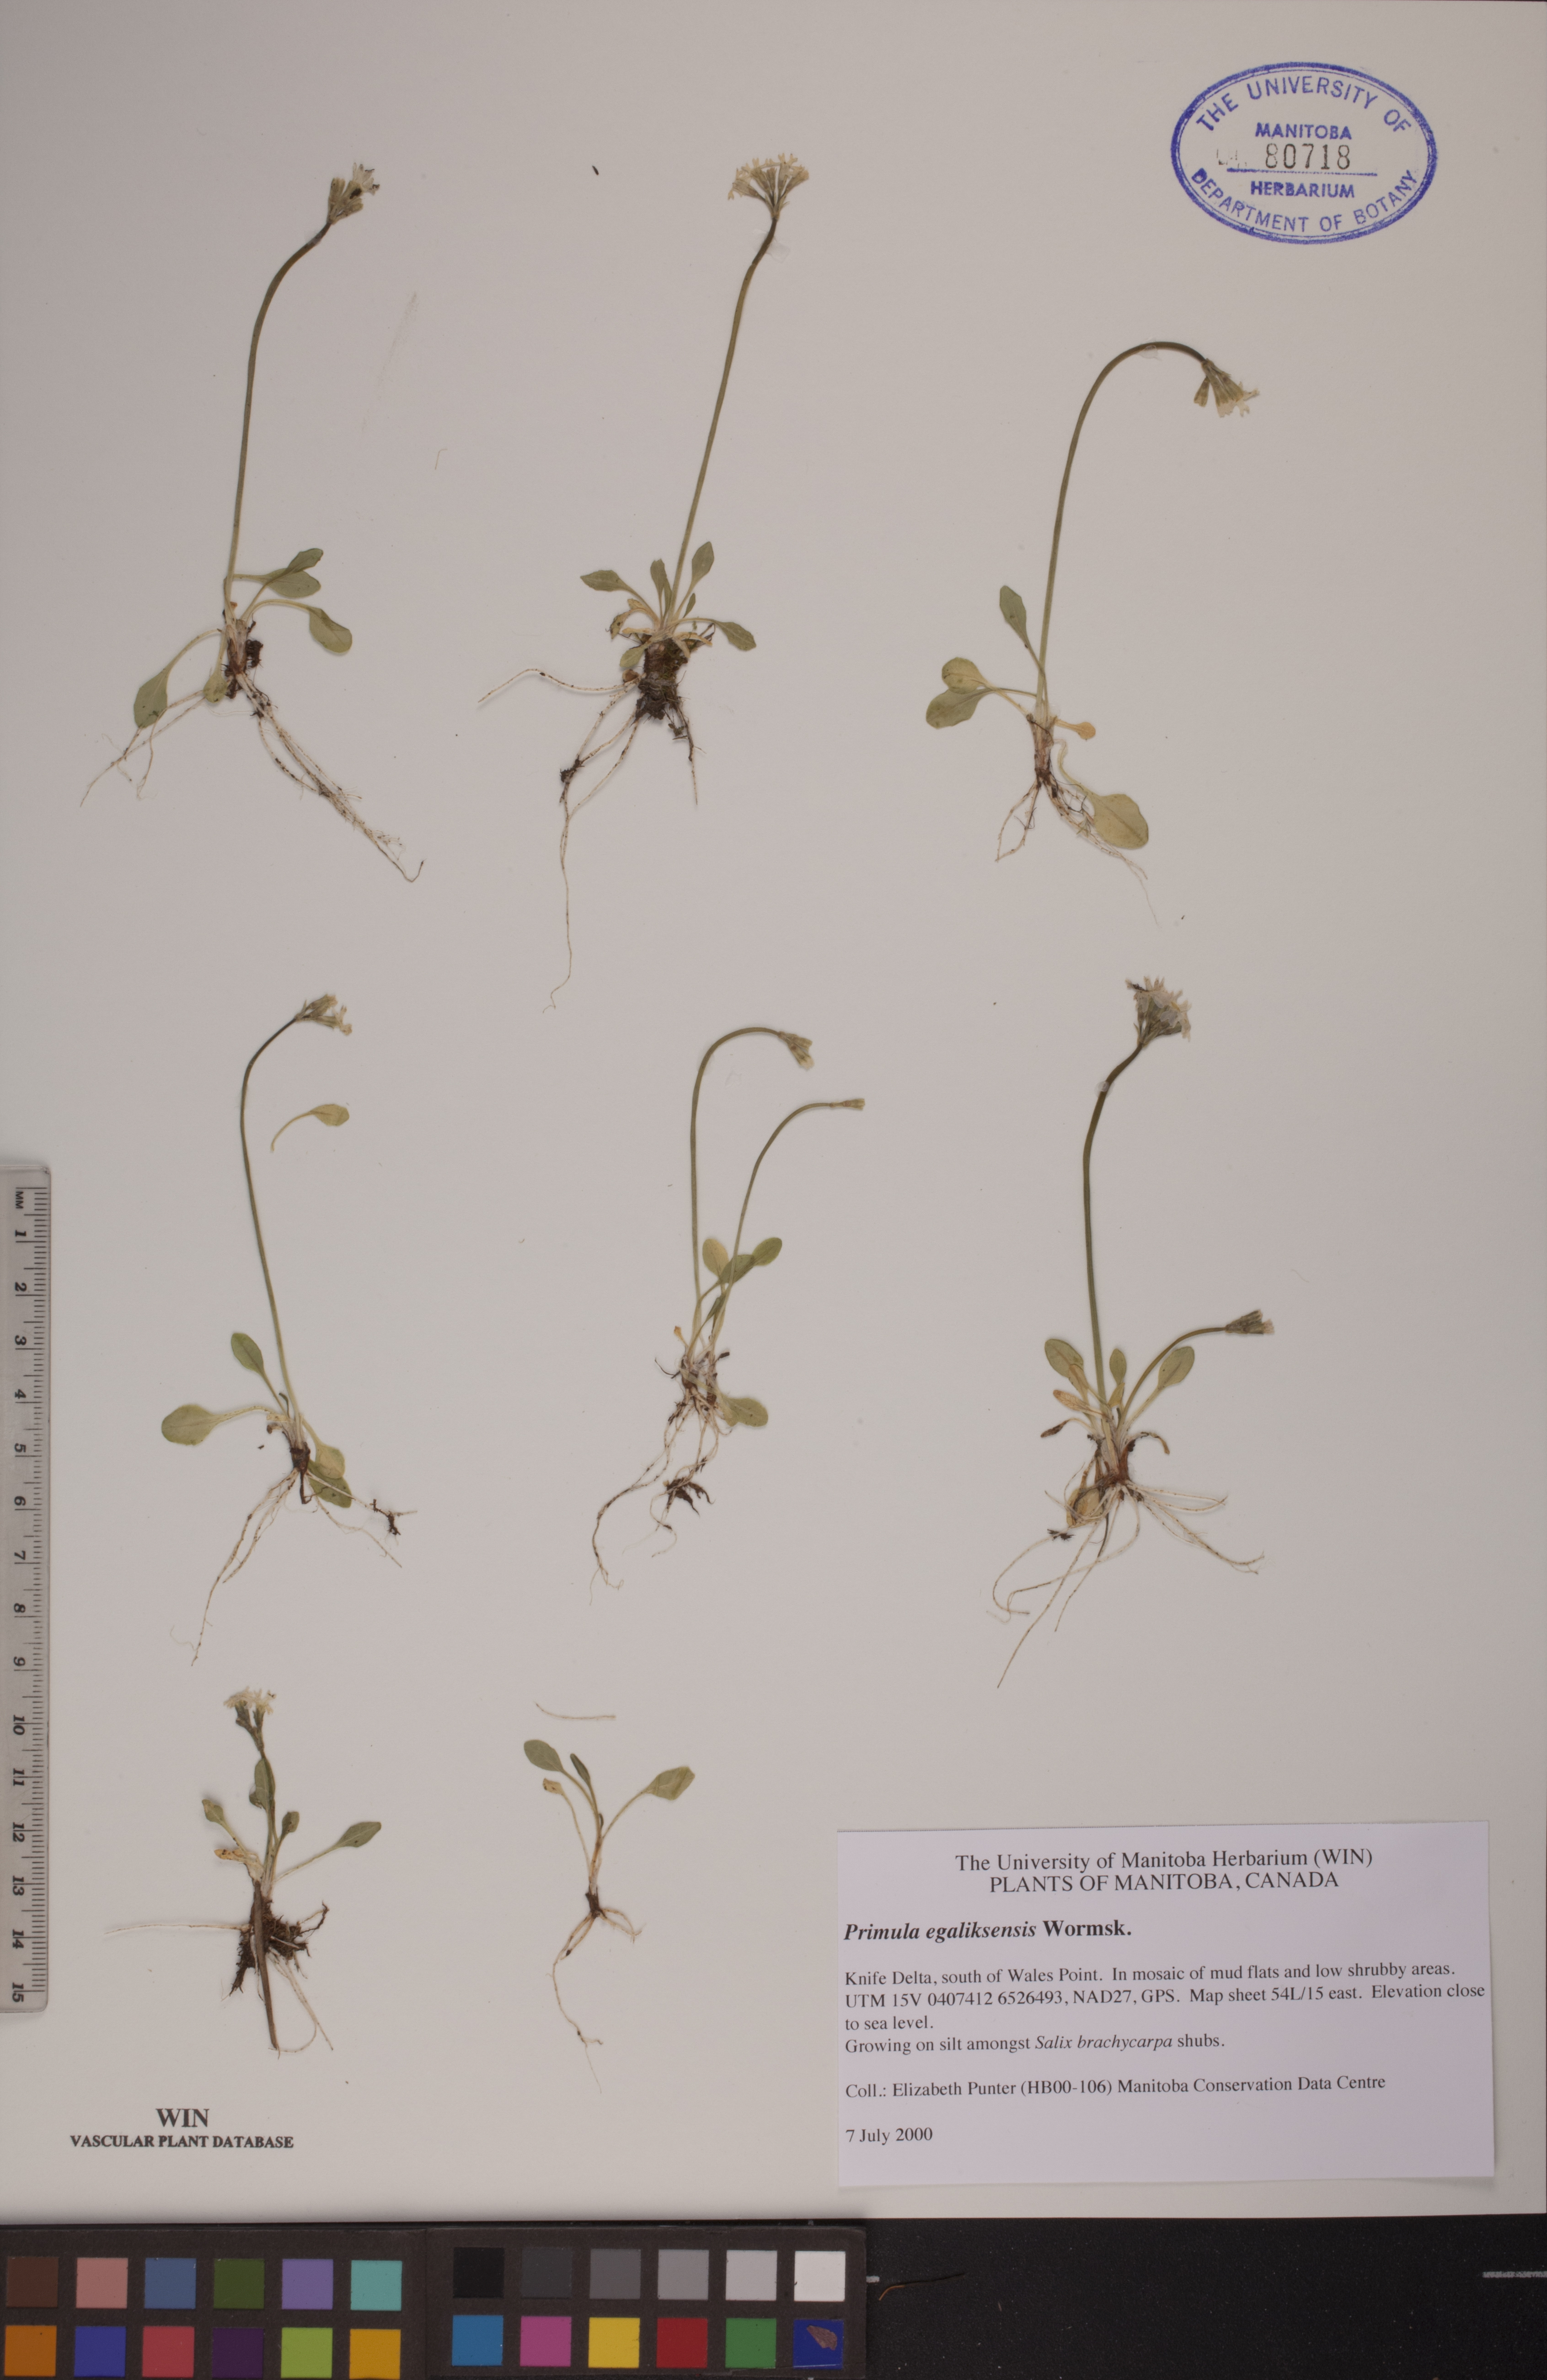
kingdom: Plantae
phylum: Tracheophyta
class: Magnoliopsida
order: Ericales
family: Primulaceae
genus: Primula
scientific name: Primula egaliksensis
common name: Greenland primrose
